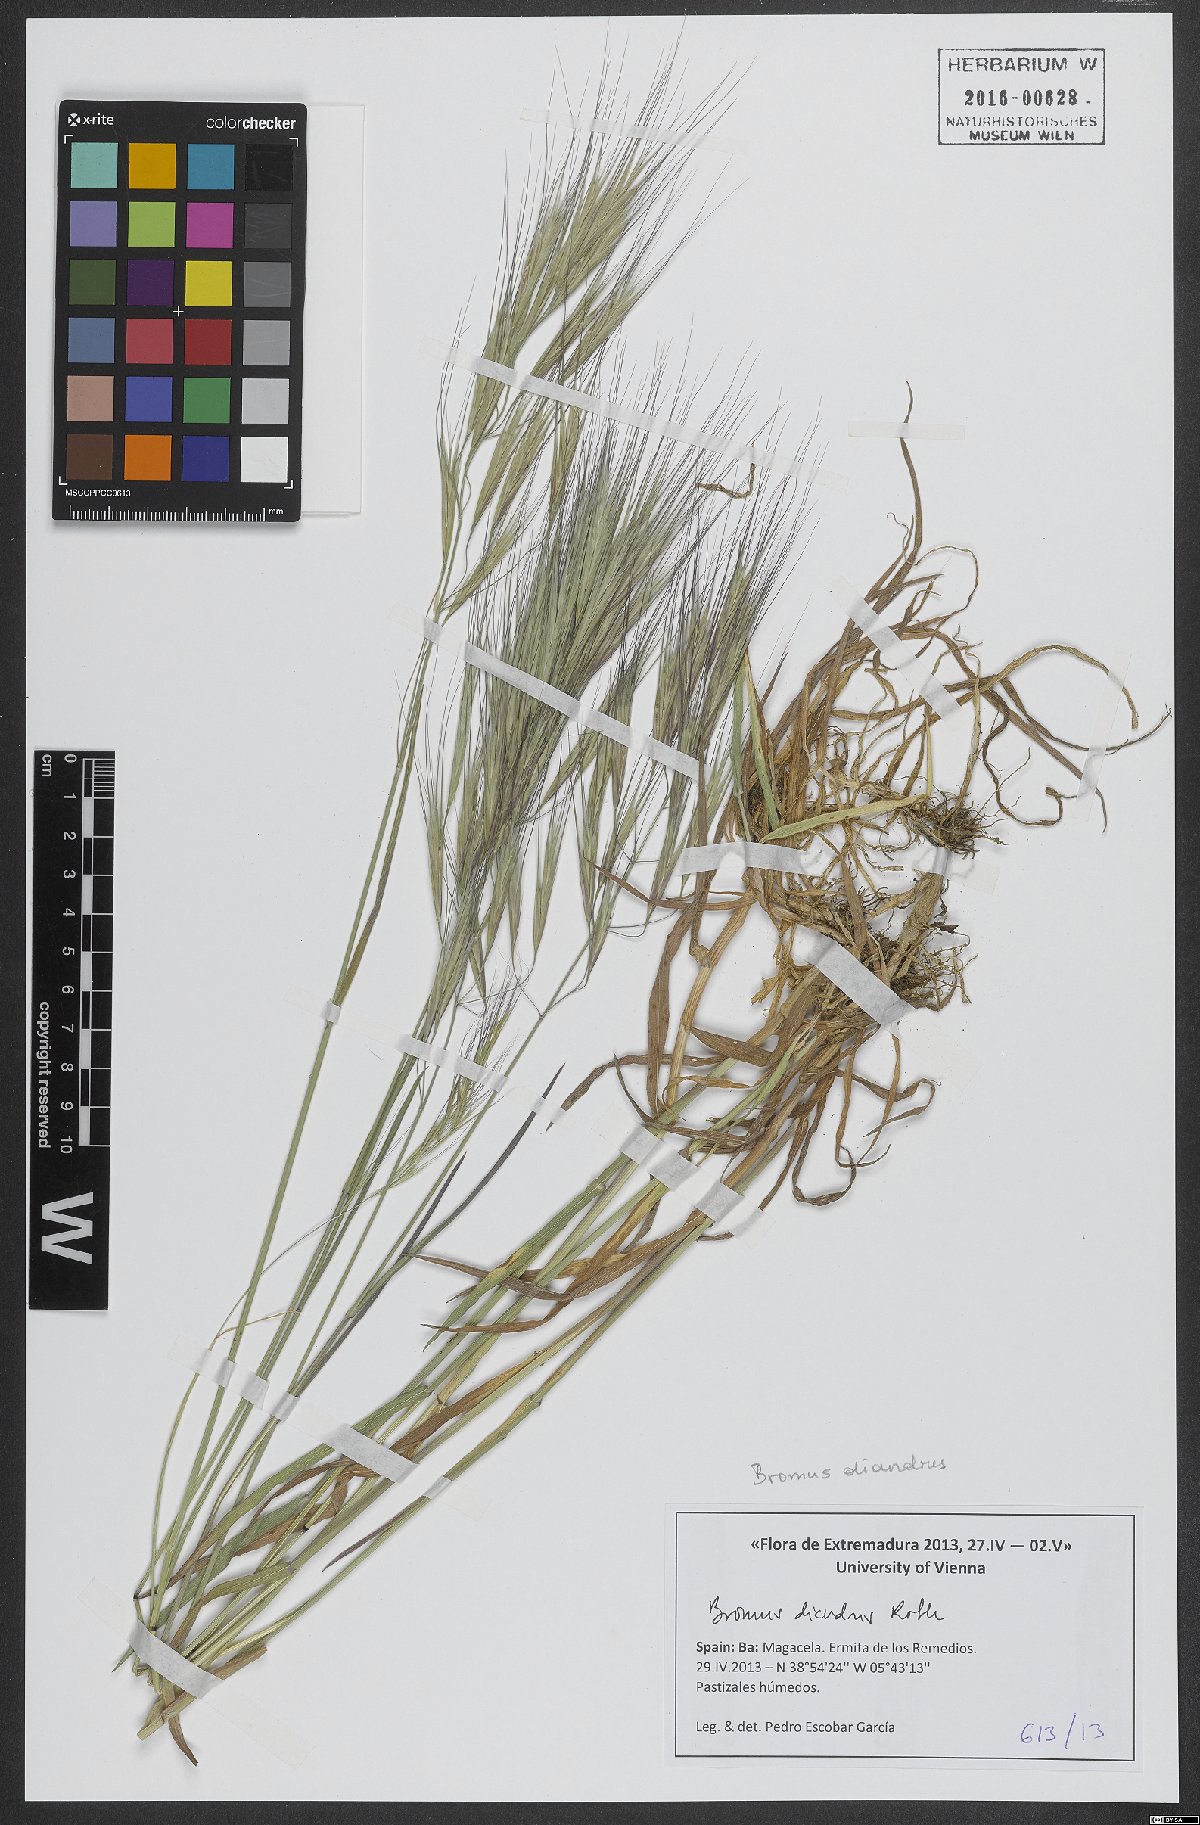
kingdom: Plantae
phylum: Tracheophyta
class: Liliopsida
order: Poales
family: Poaceae
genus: Bromus
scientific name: Bromus diandrus
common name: Ripgut brome
